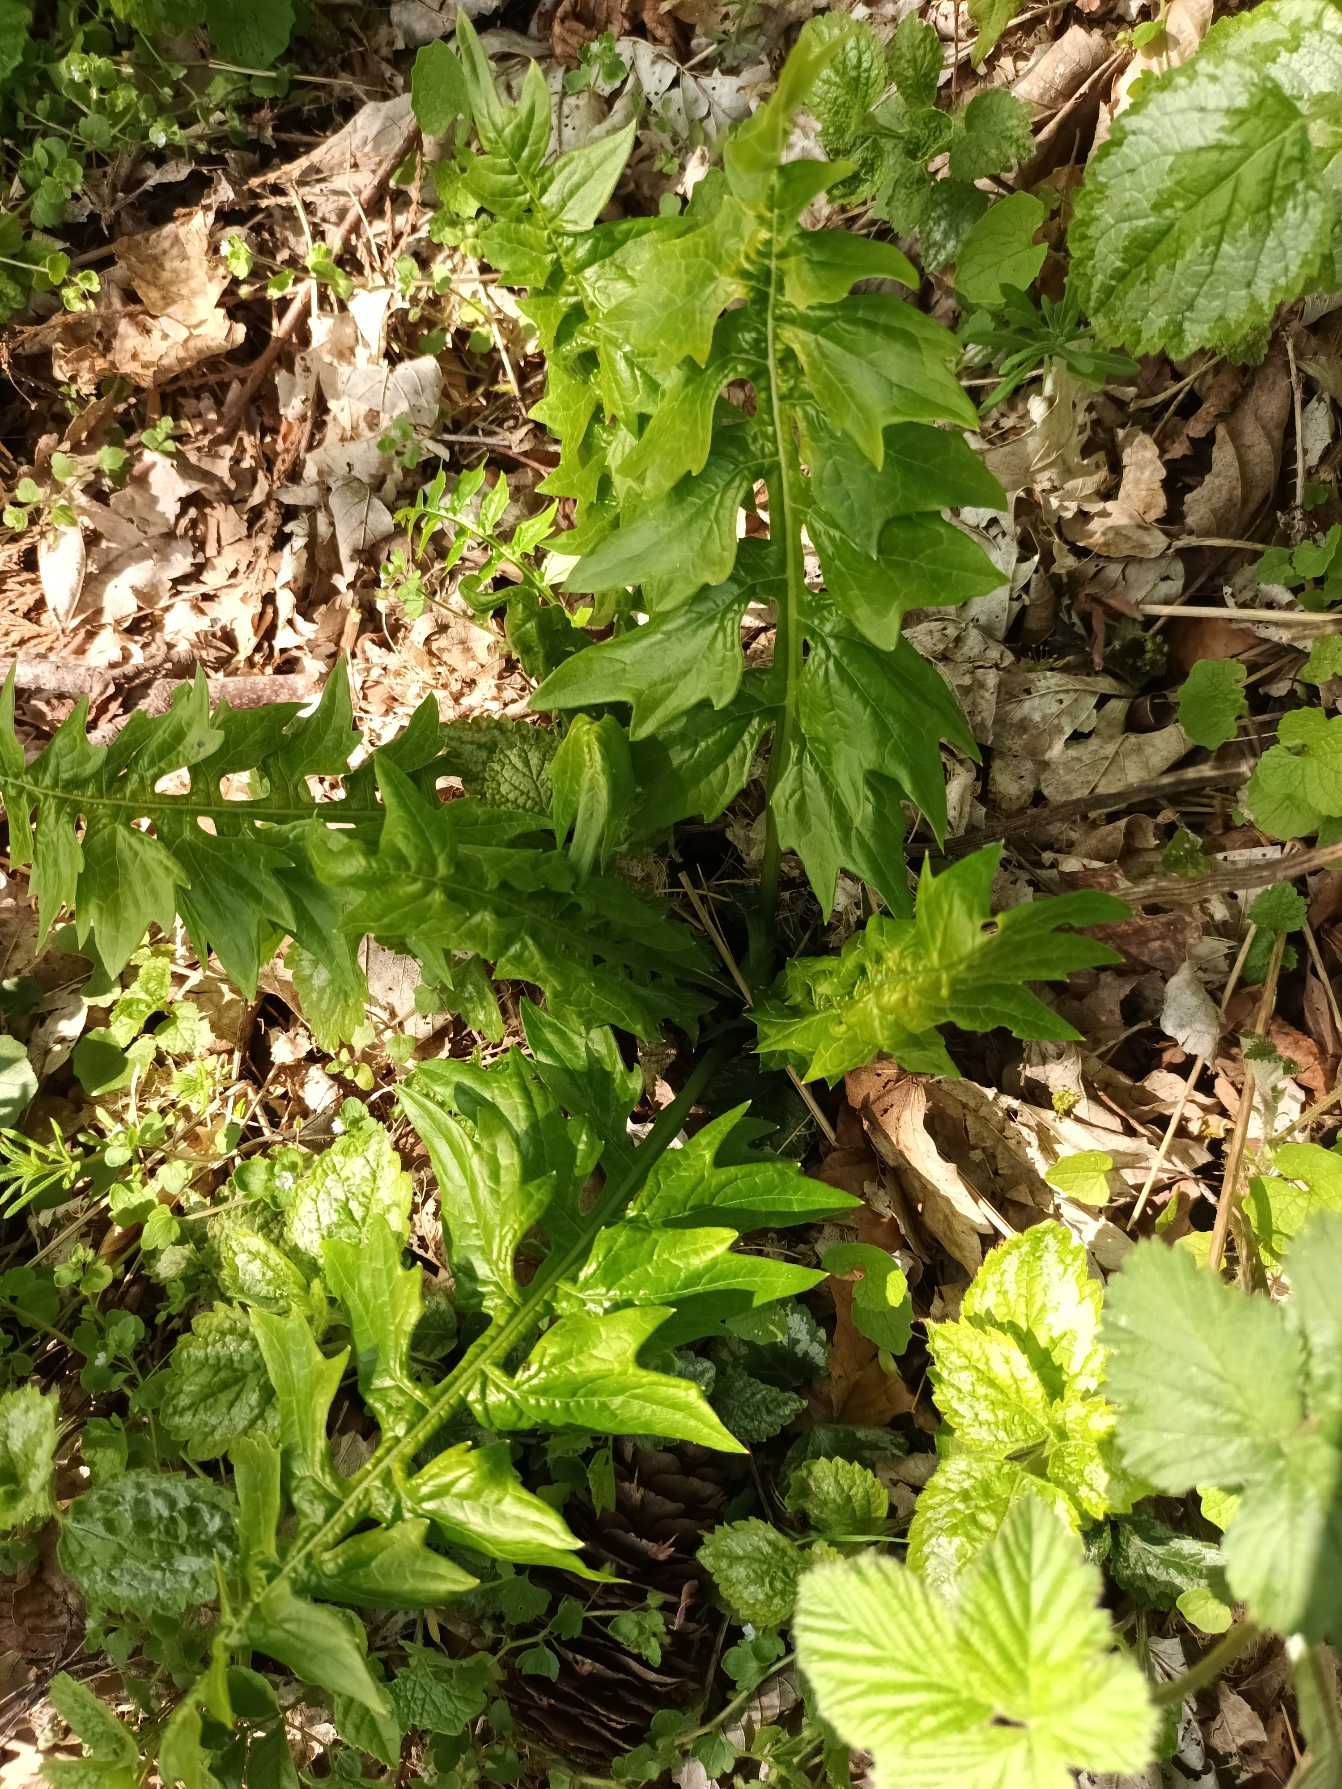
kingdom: Plantae
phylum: Tracheophyta
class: Magnoliopsida
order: Lamiales
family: Acanthaceae
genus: Acanthus
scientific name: Acanthus hungaricus
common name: Balkantidsel
